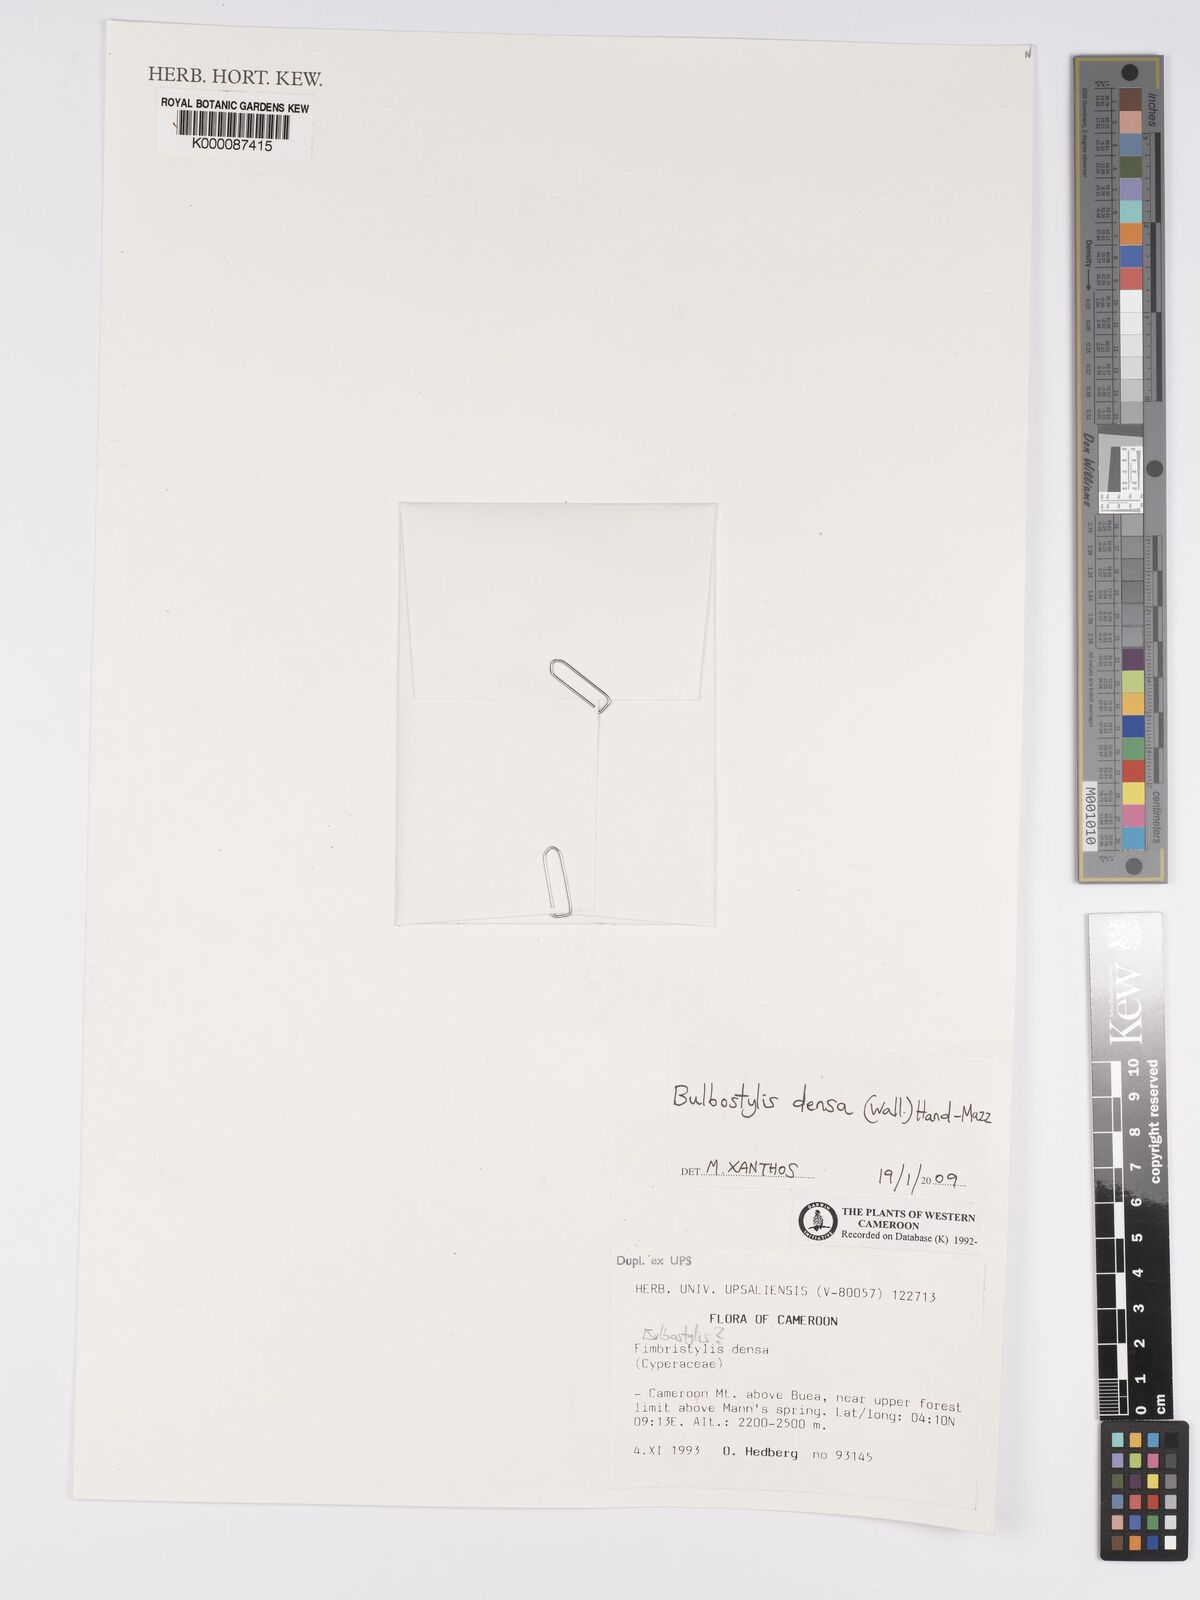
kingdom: Plantae
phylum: Tracheophyta
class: Liliopsida
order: Poales
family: Cyperaceae
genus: Bulbostylis
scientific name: Bulbostylis densa
